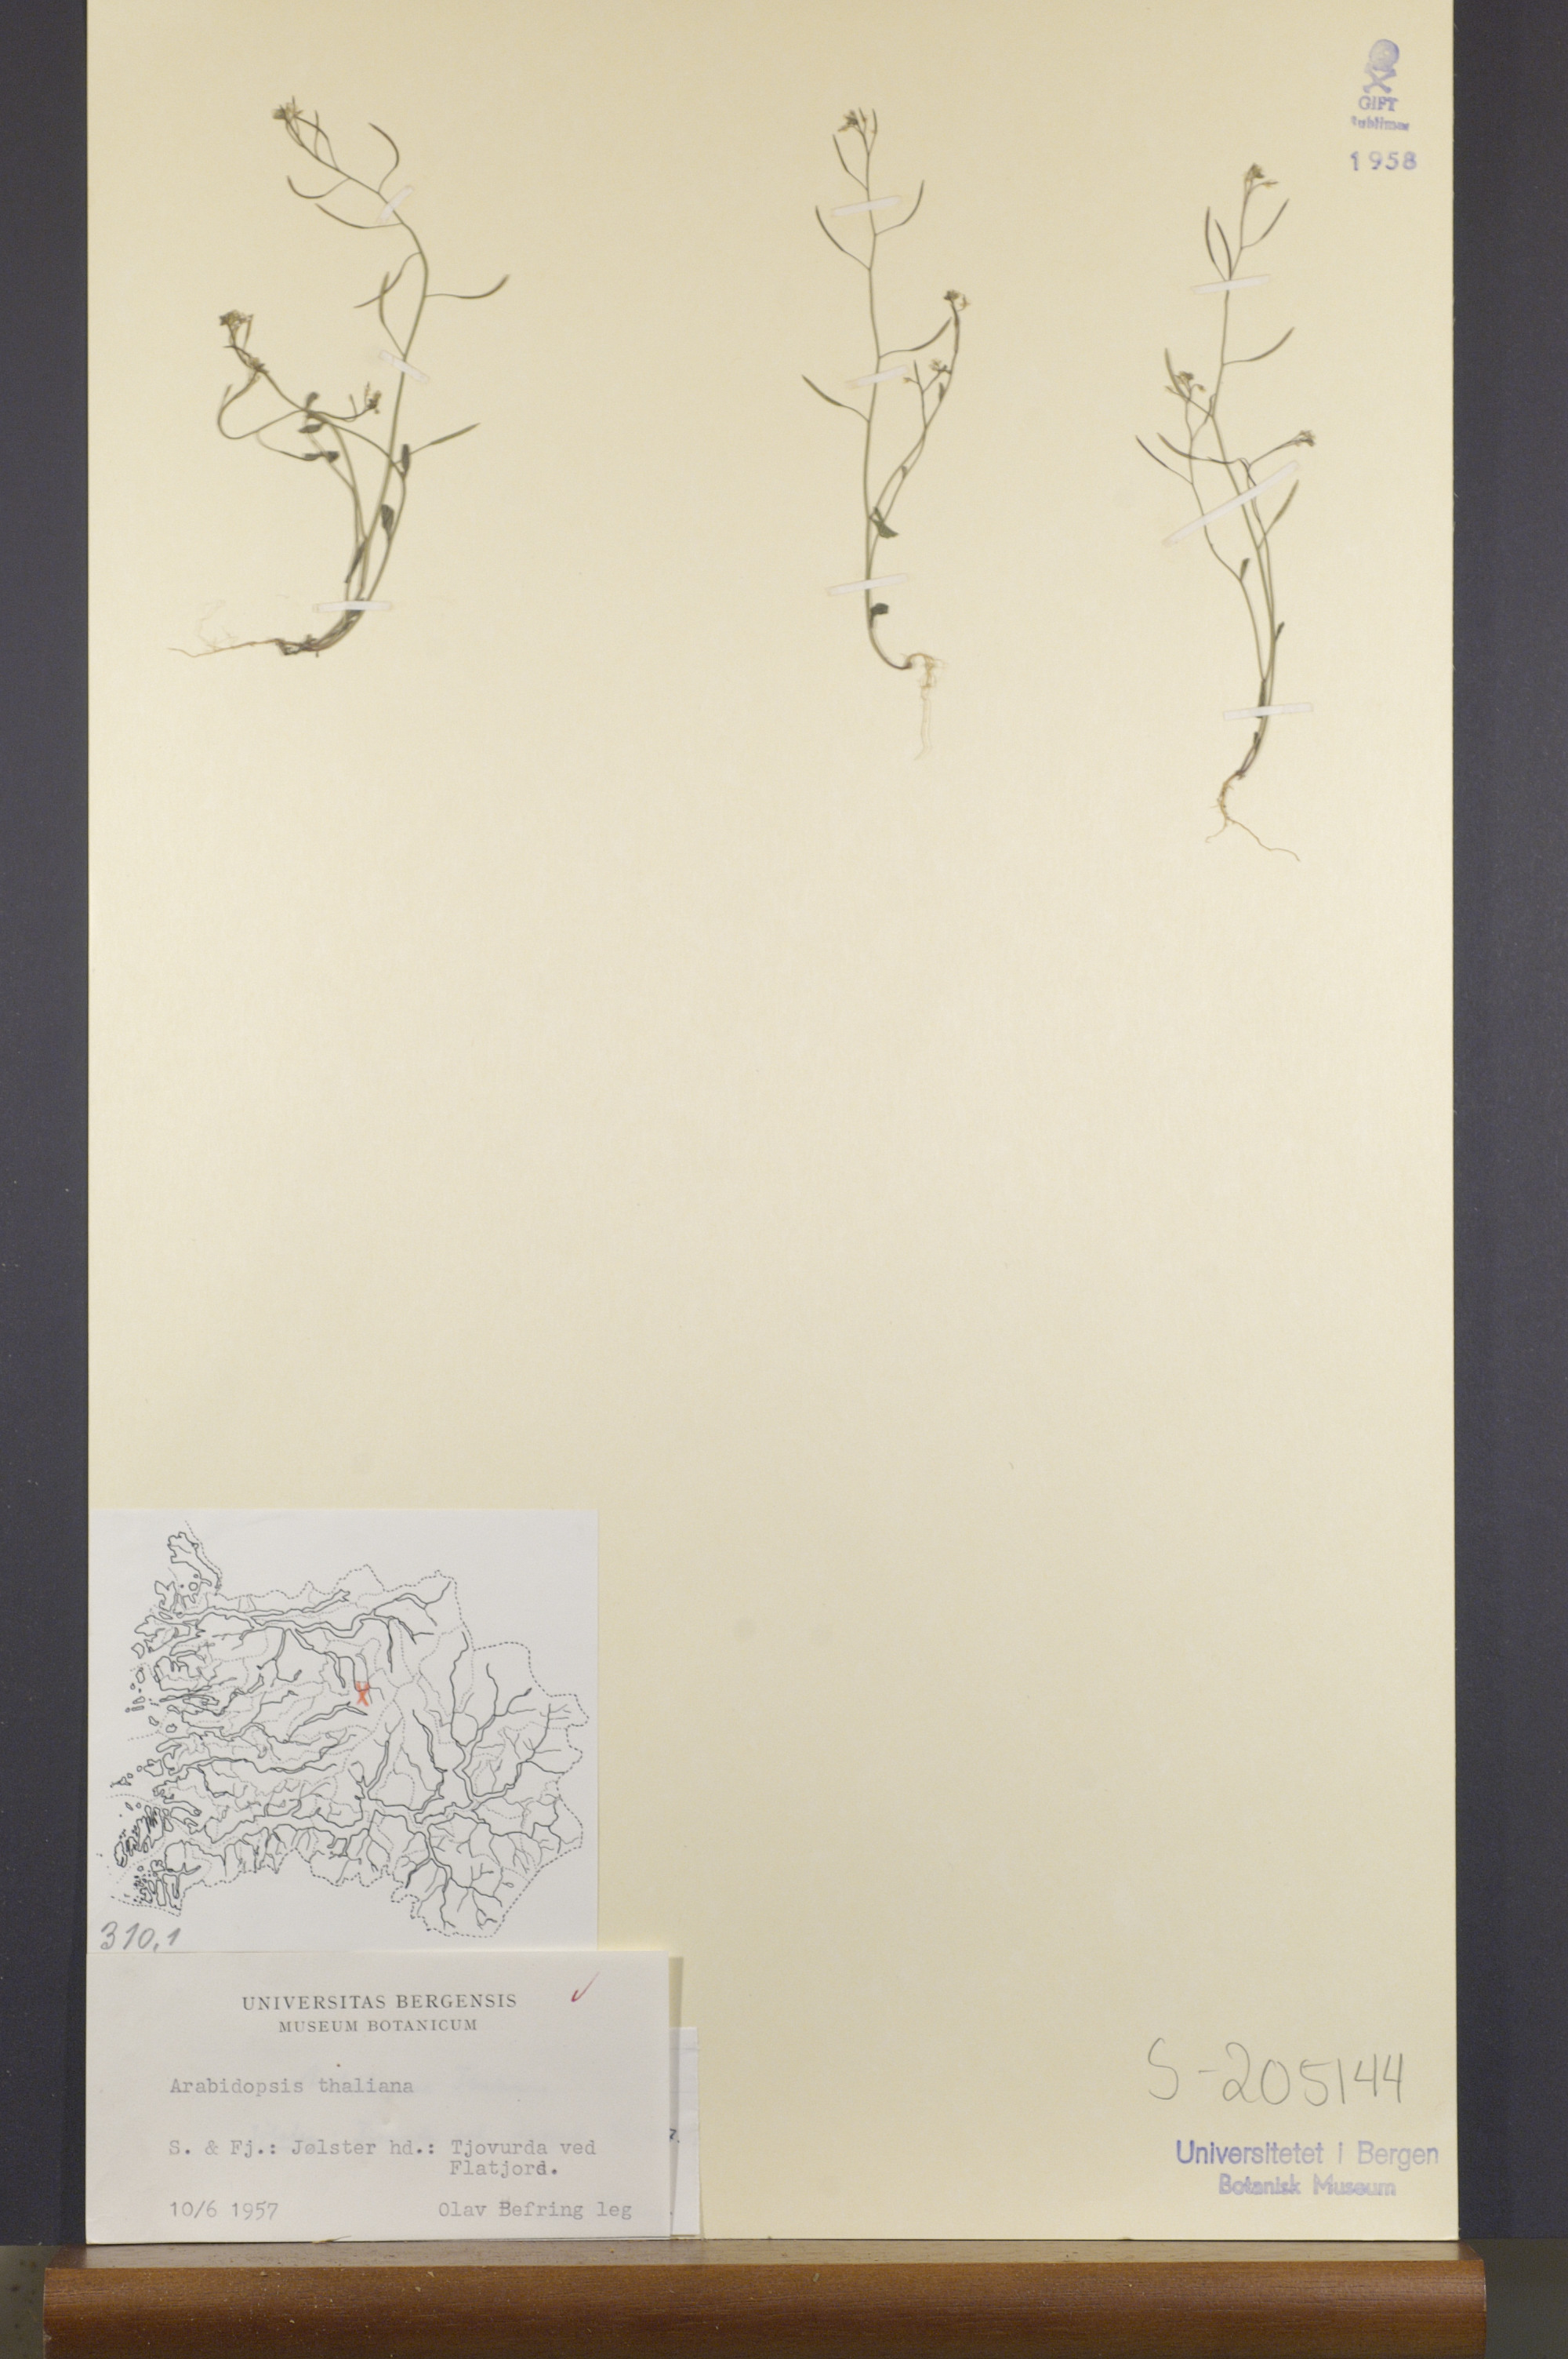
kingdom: Plantae
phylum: Tracheophyta
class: Magnoliopsida
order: Brassicales
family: Brassicaceae
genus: Arabidopsis
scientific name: Arabidopsis thaliana
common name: Thale cress
